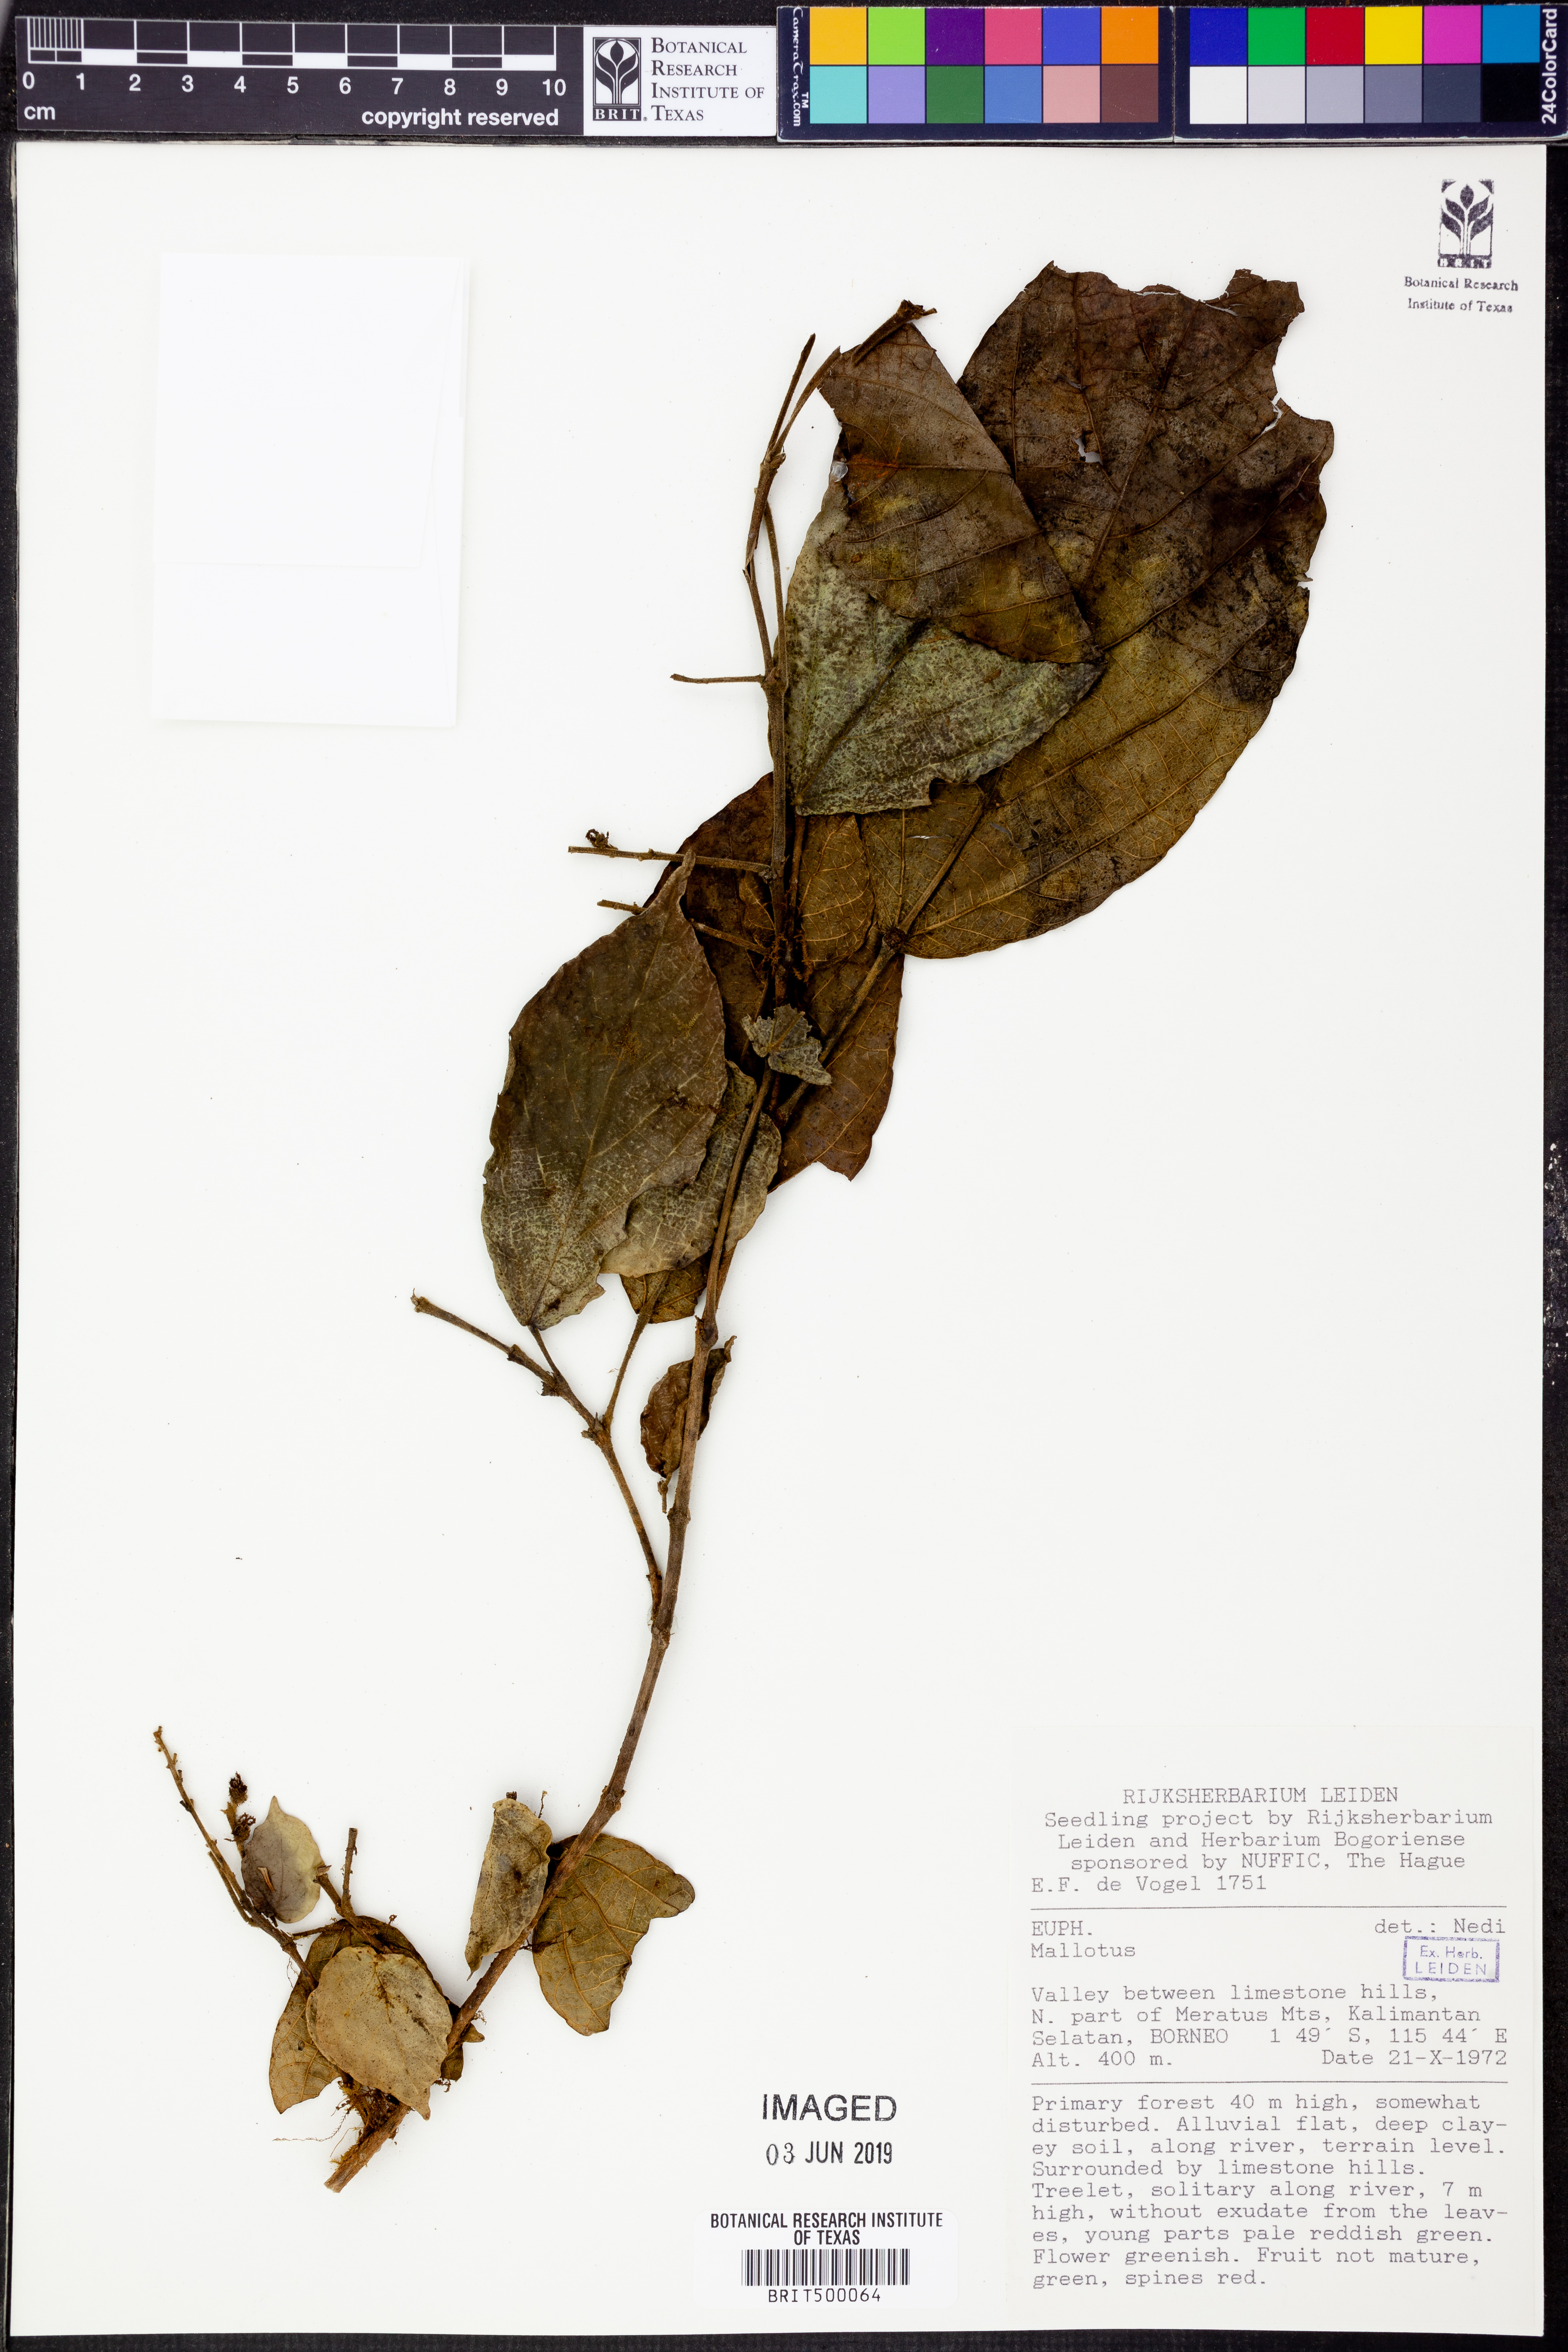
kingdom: Plantae
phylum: Tracheophyta
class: Magnoliopsida
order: Malpighiales
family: Euphorbiaceae
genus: Mallotus
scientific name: Mallotus
